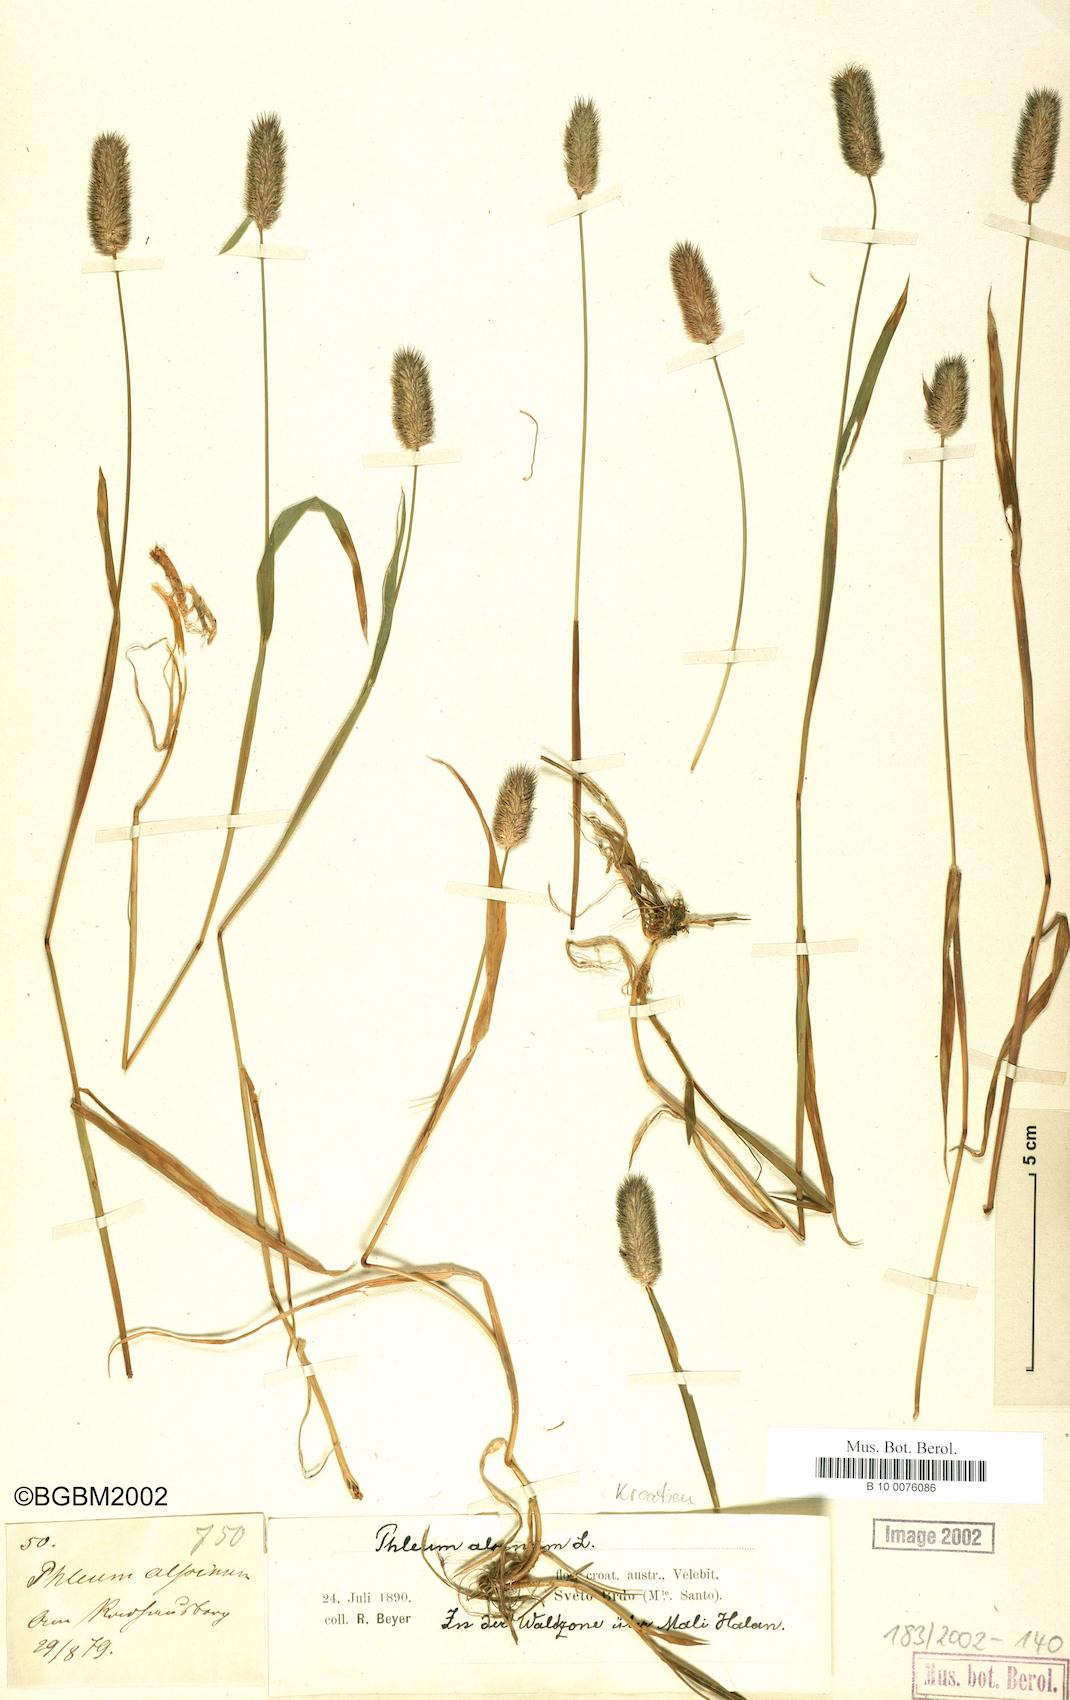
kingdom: Plantae
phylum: Tracheophyta
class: Liliopsida
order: Poales
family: Poaceae
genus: Phleum
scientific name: Phleum alpinum
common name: Alpine cat's-tail
